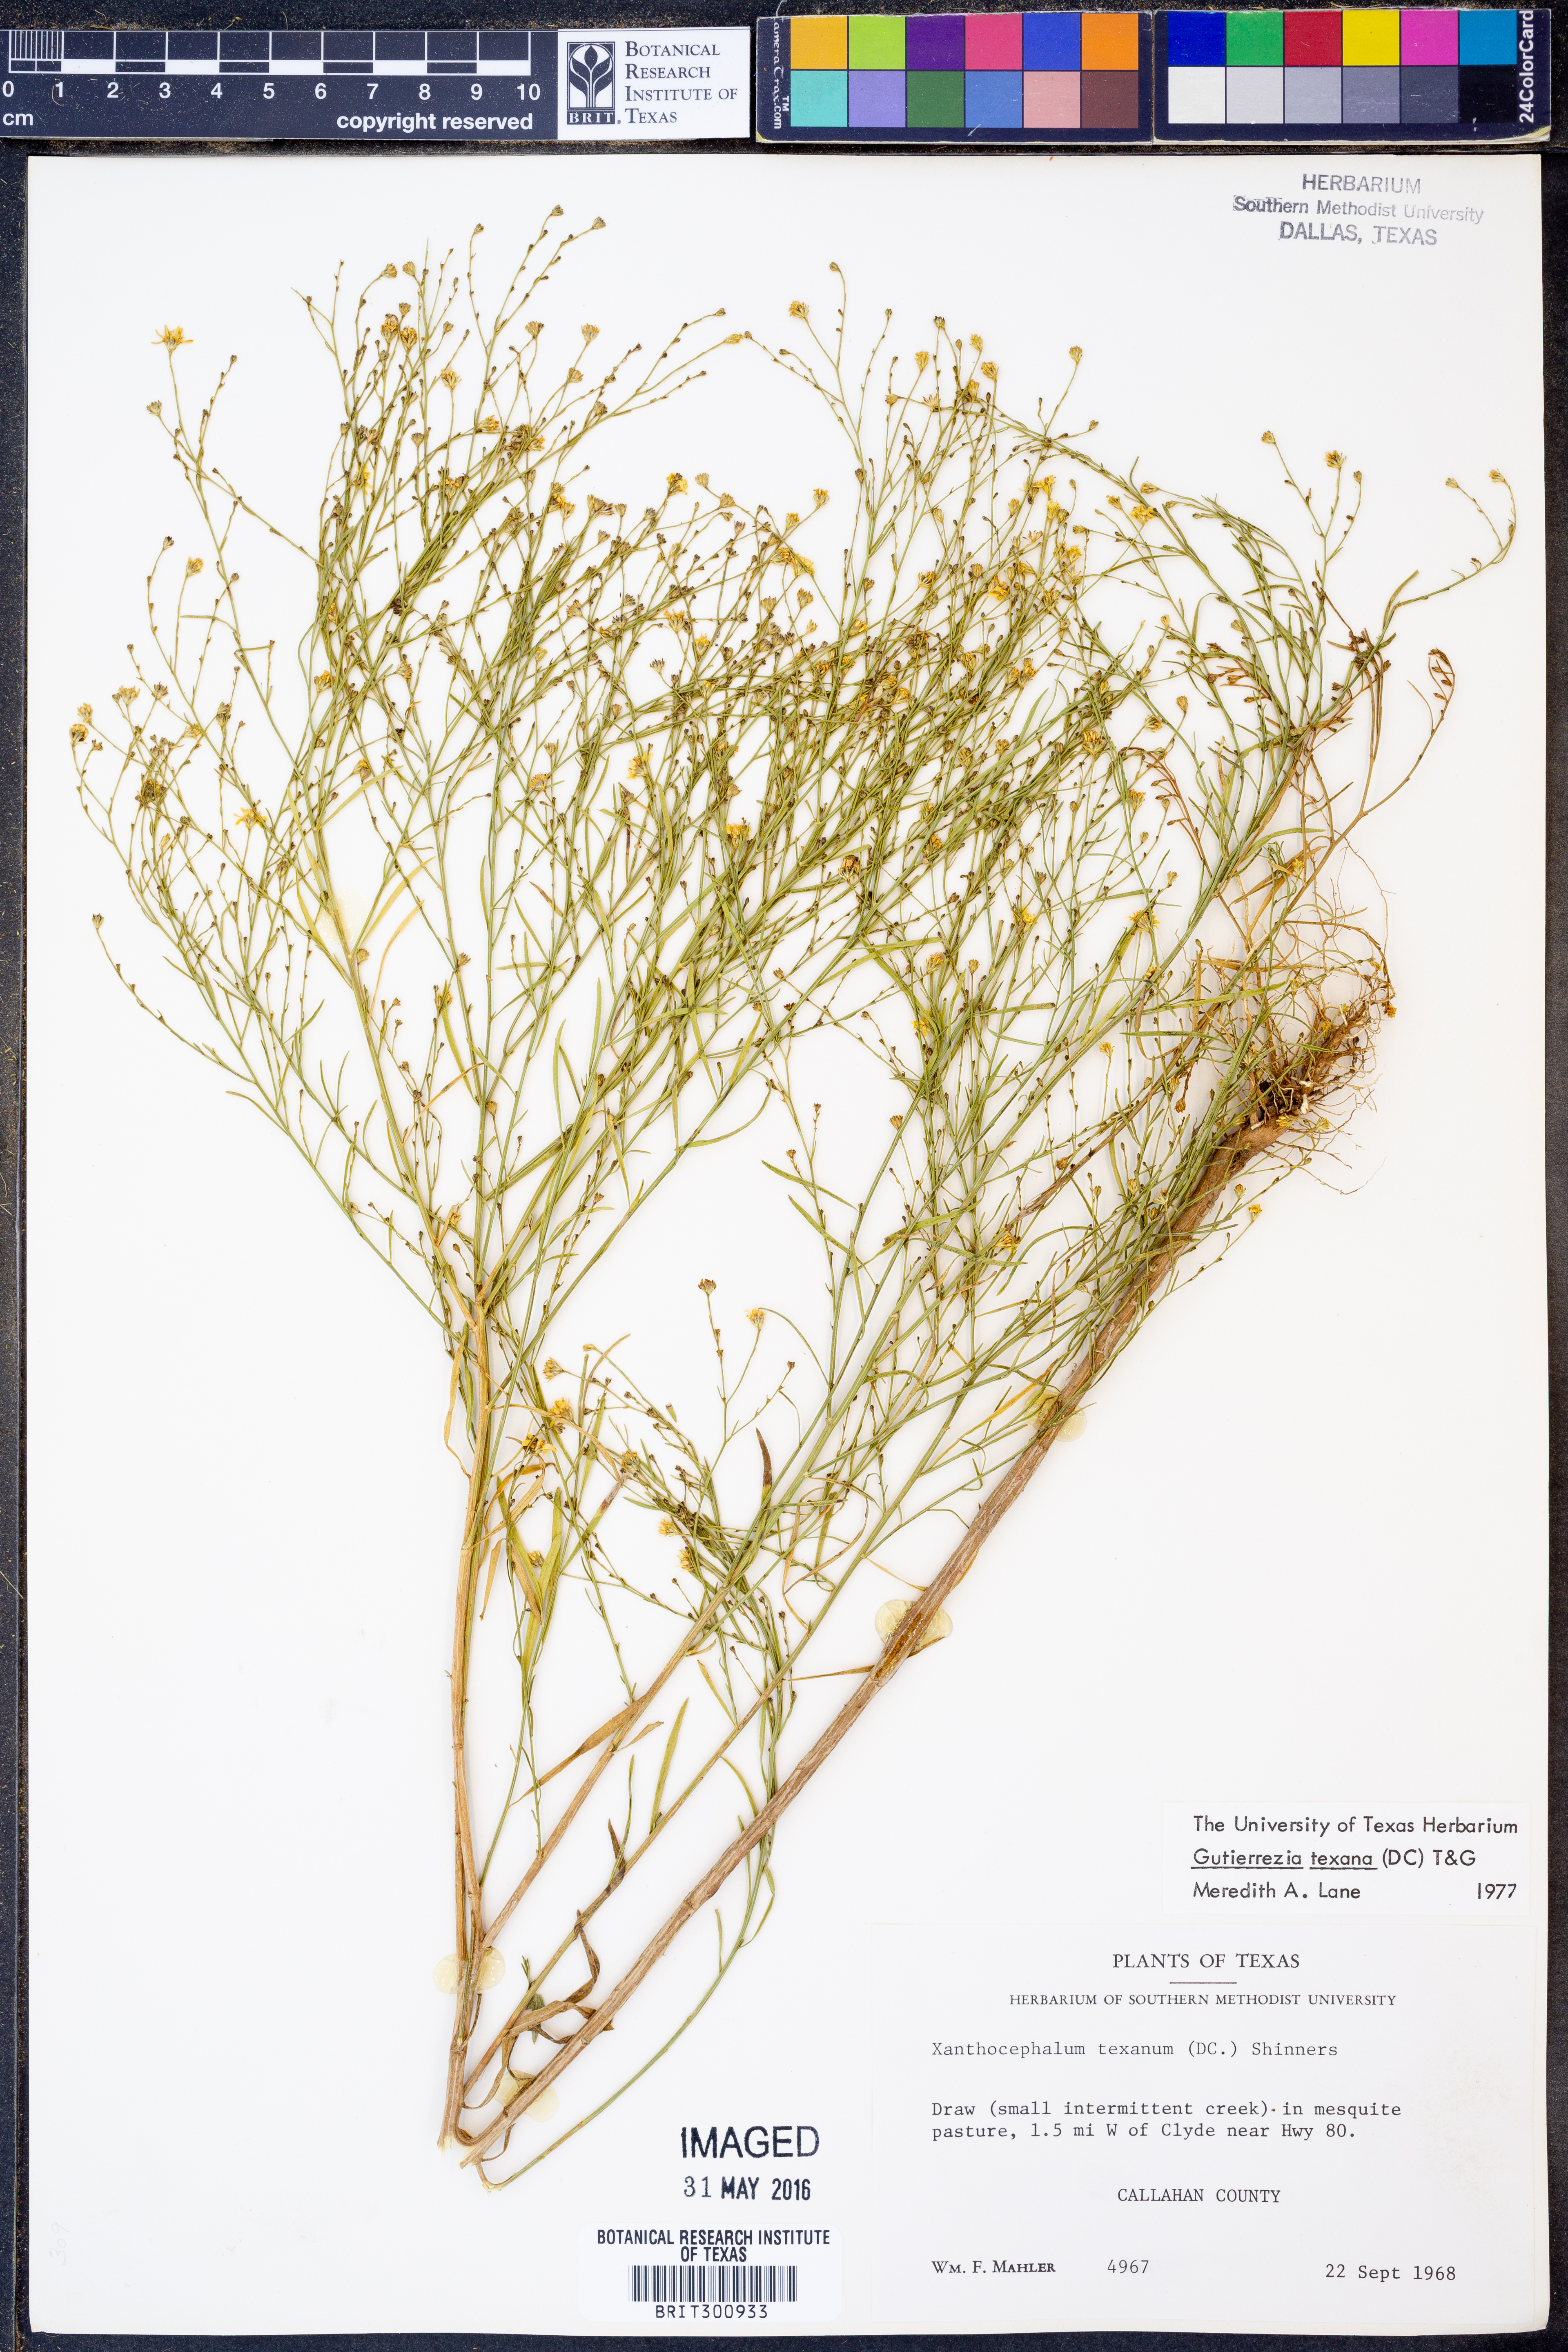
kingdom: Plantae
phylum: Tracheophyta
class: Magnoliopsida
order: Asterales
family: Asteraceae
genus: Gutierrezia
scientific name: Gutierrezia texana
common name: Texas snakeweed
